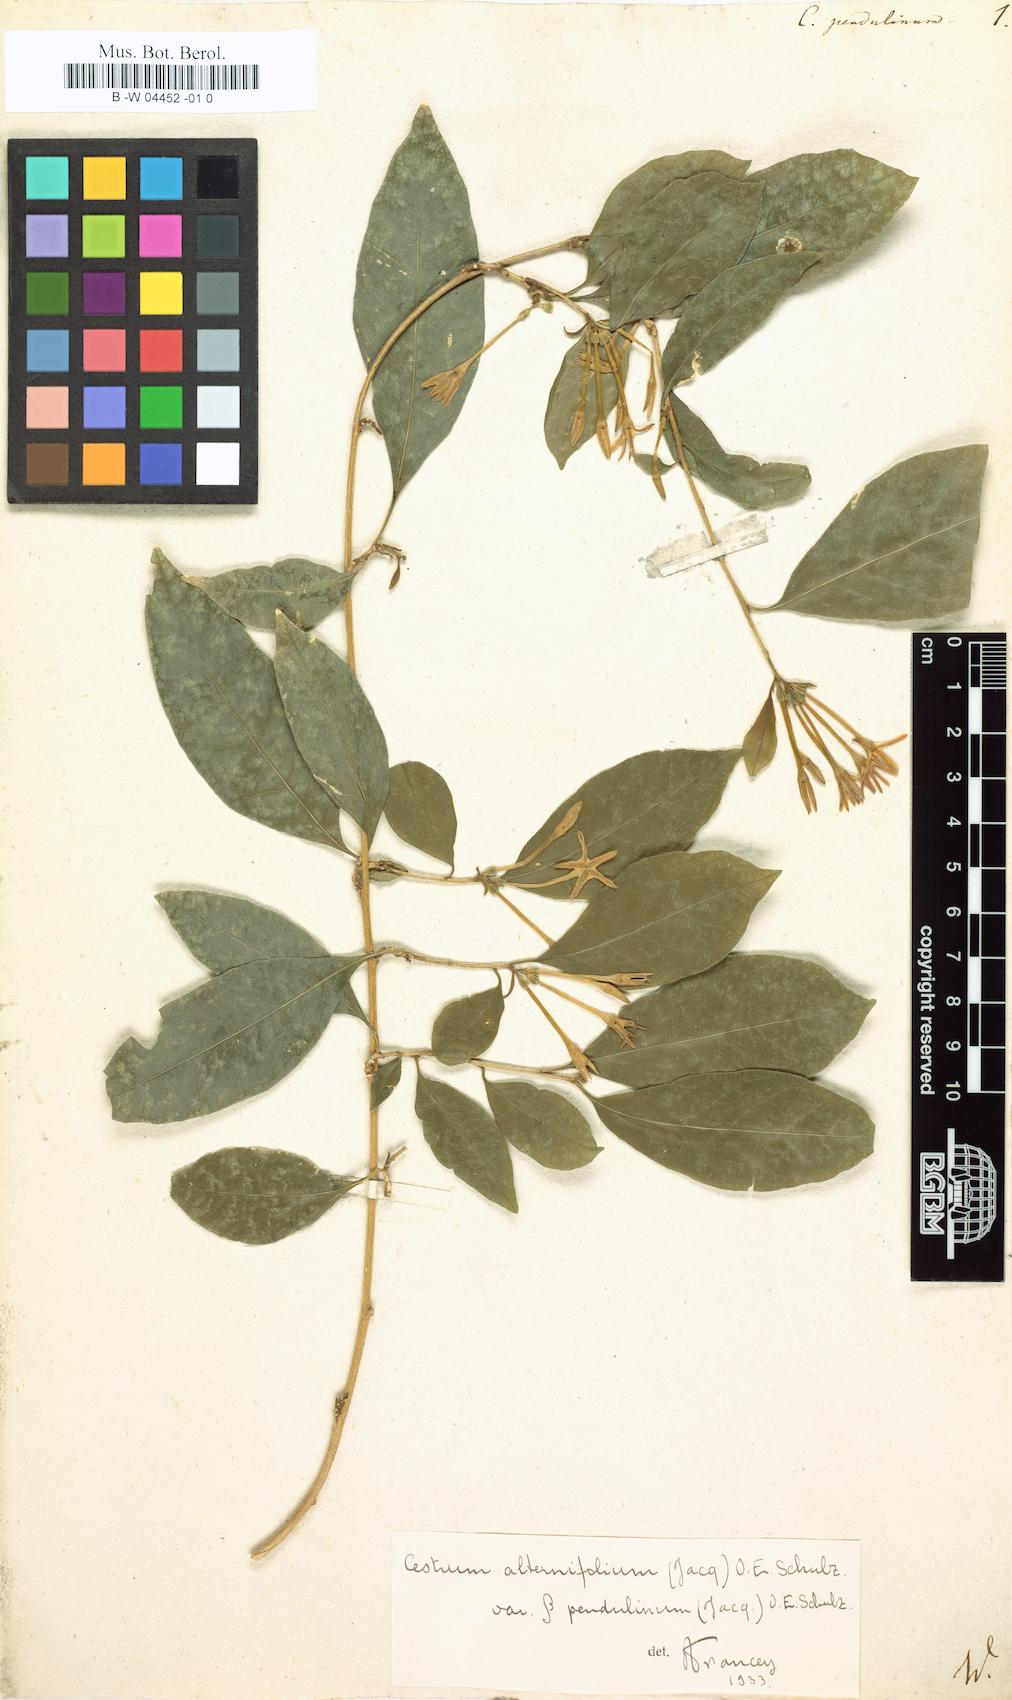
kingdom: Plantae
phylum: Tracheophyta
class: Magnoliopsida
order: Solanales
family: Solanaceae
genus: Cestrum
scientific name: Cestrum
